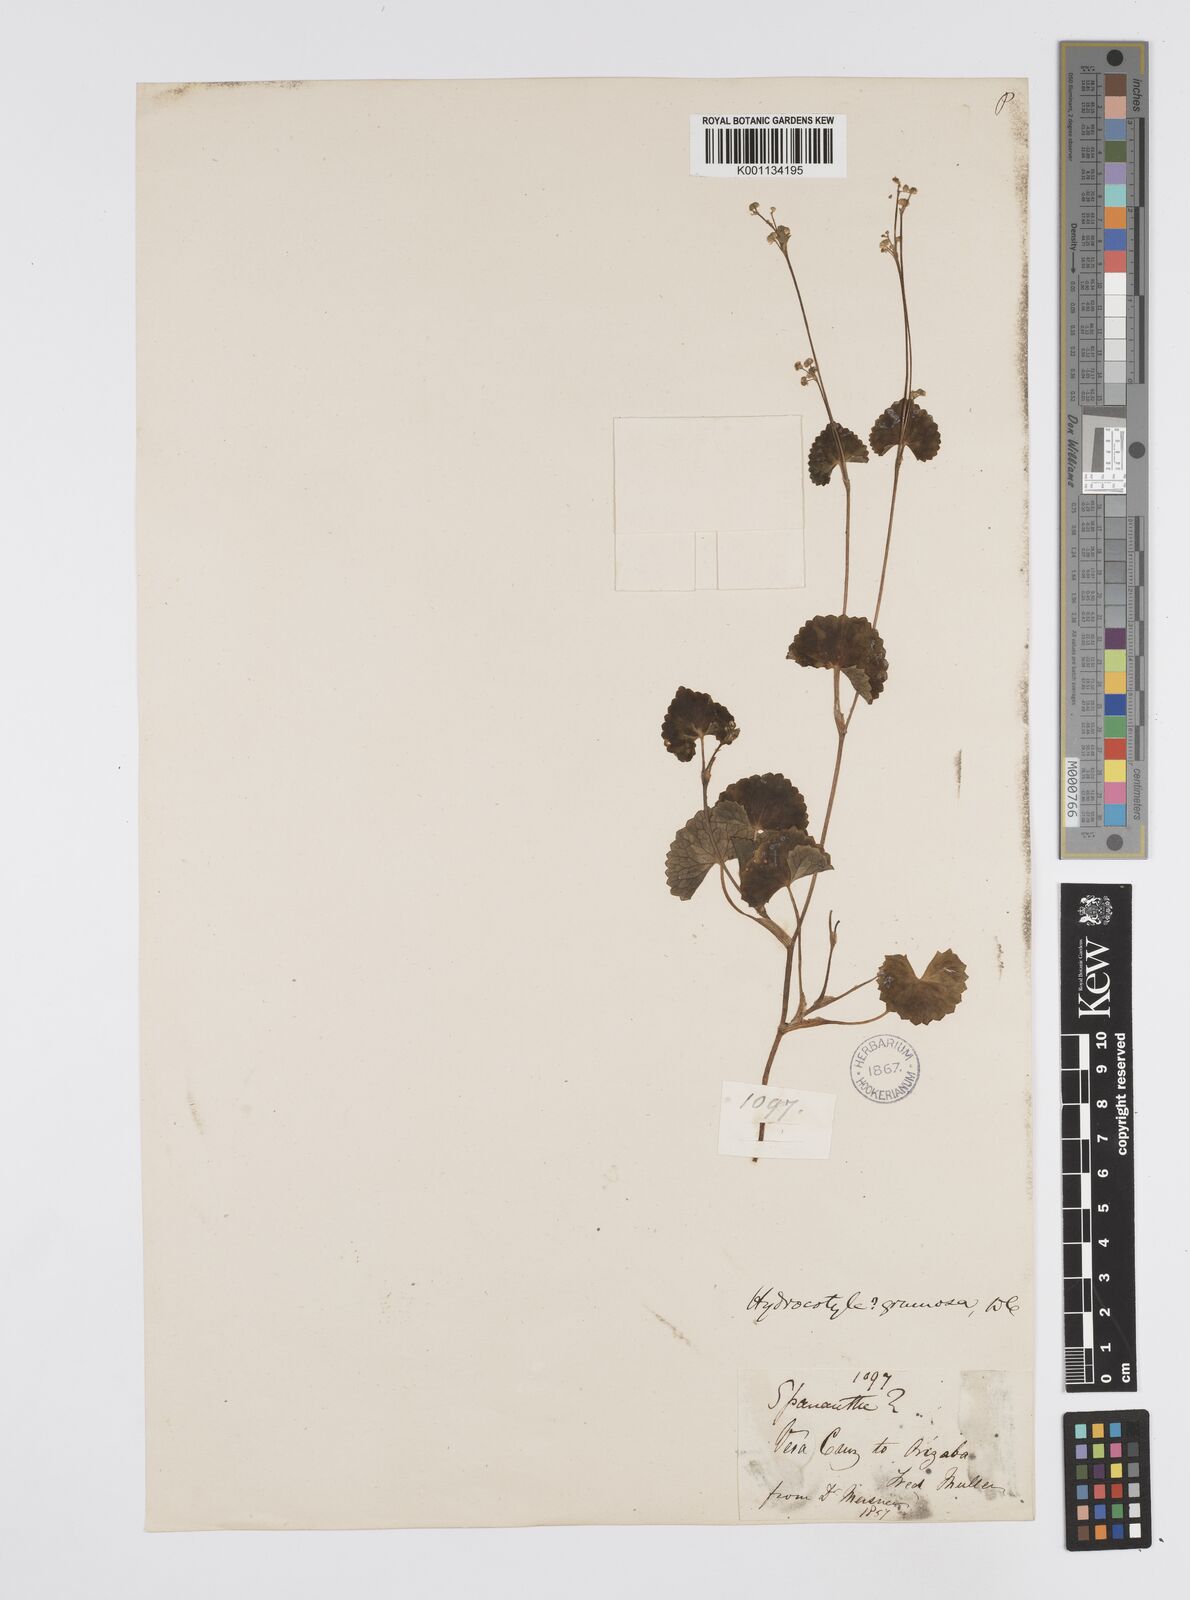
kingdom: Plantae
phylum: Tracheophyta
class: Magnoliopsida
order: Apiales
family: Apiaceae
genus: Micropleura
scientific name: Micropleura renifolia
